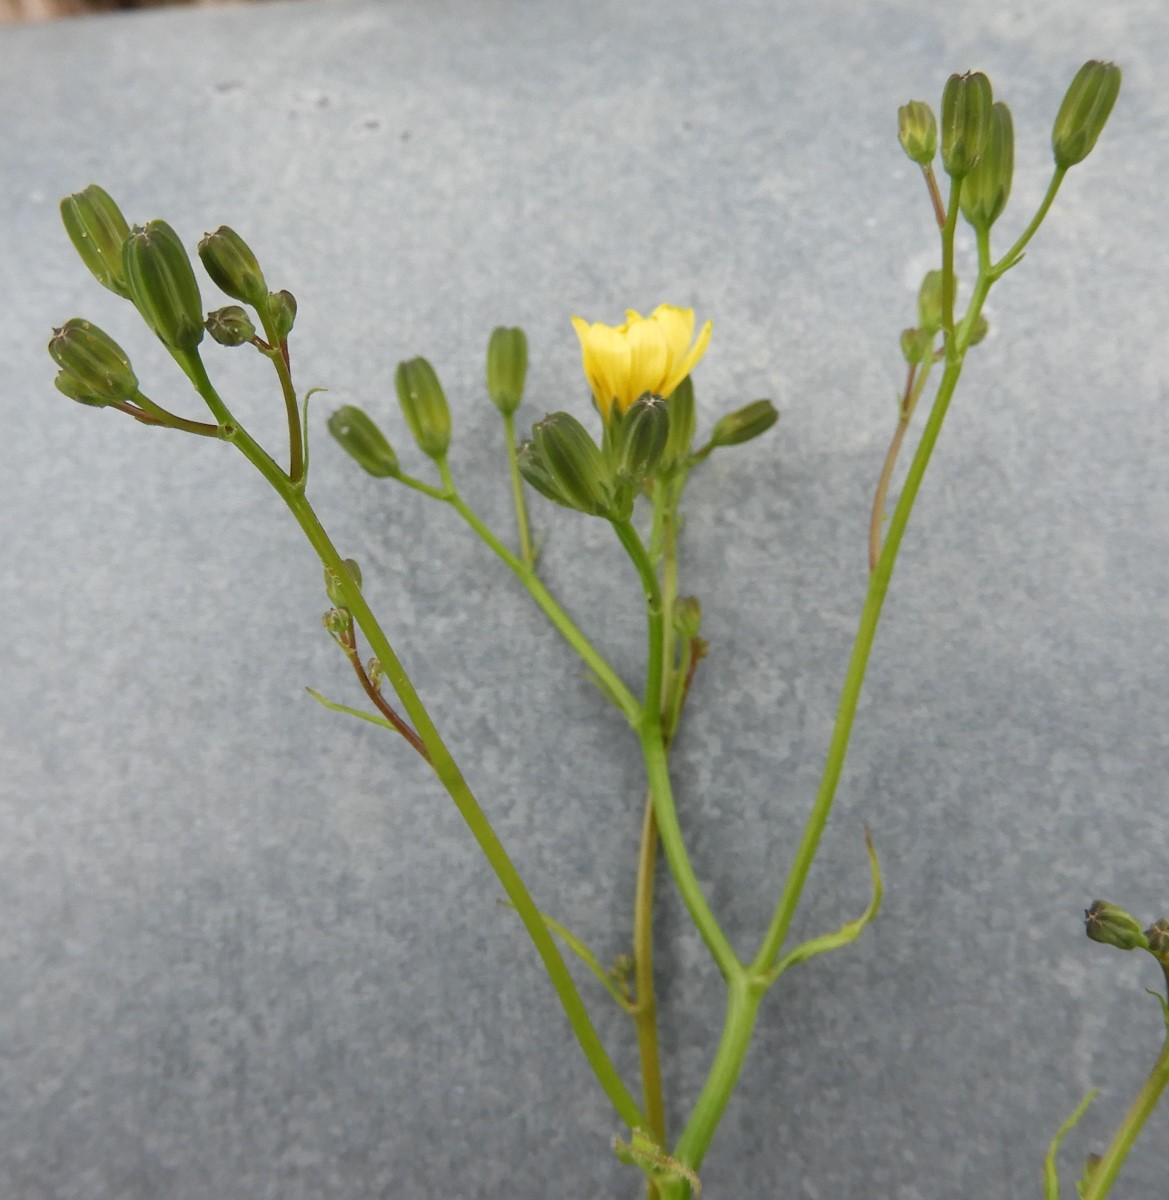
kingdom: Fungi
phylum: Basidiomycota
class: Pucciniomycetes
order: Pucciniales
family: Pucciniaceae
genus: Puccinia
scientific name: Puccinia lapsanae
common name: Nipplewort rust
